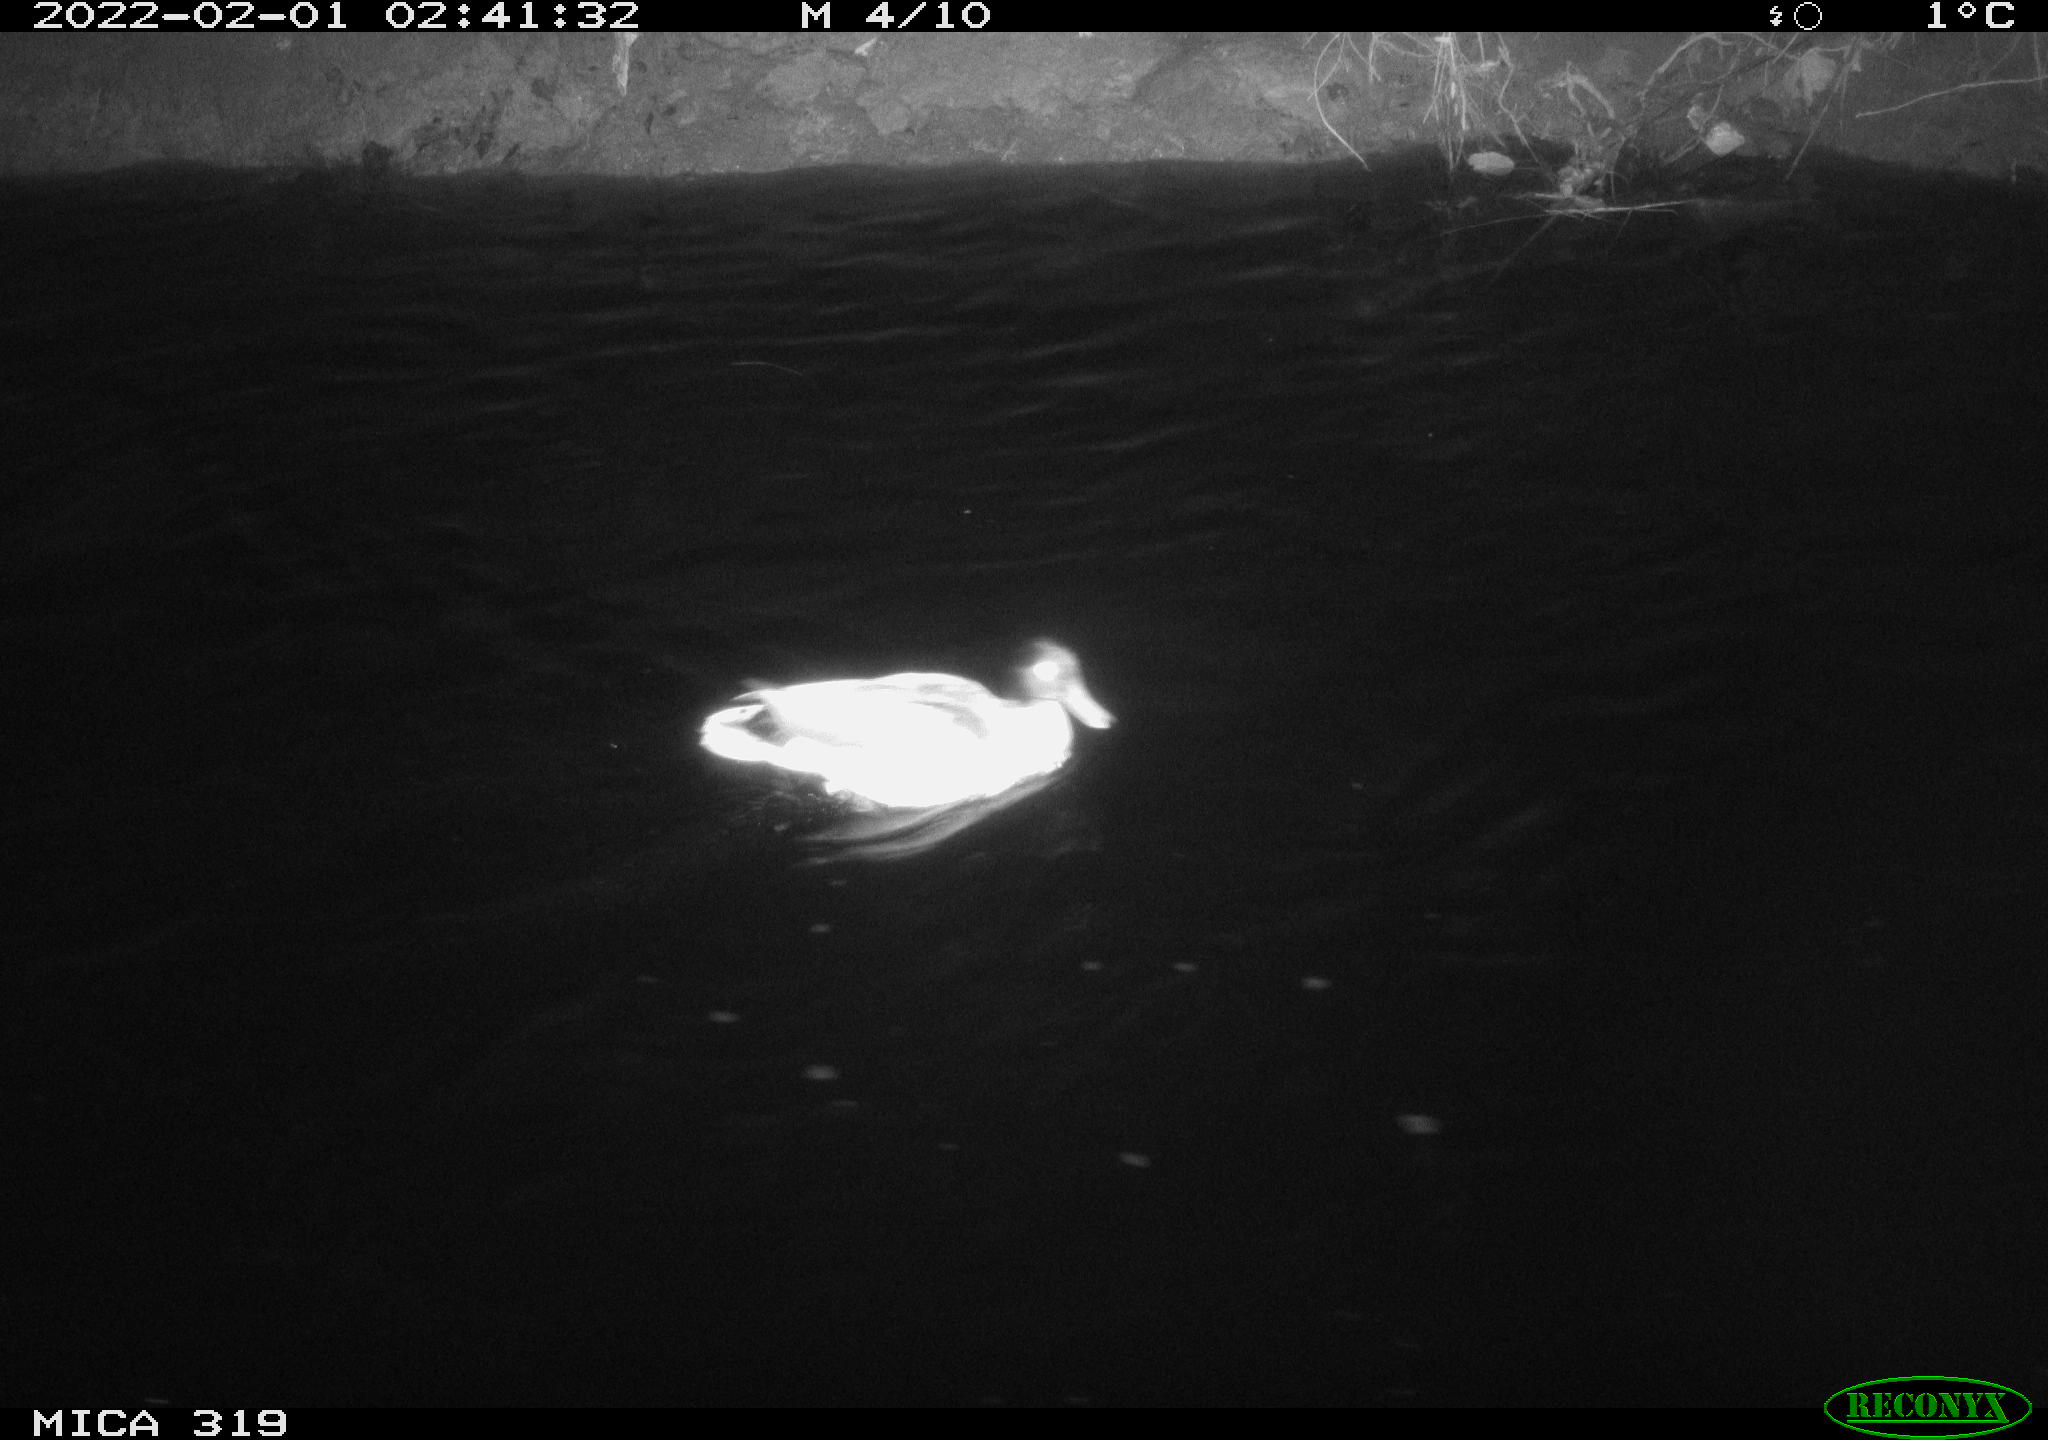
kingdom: Animalia
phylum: Chordata
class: Aves
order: Anseriformes
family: Anatidae
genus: Anas
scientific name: Anas platyrhynchos
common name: Mallard
